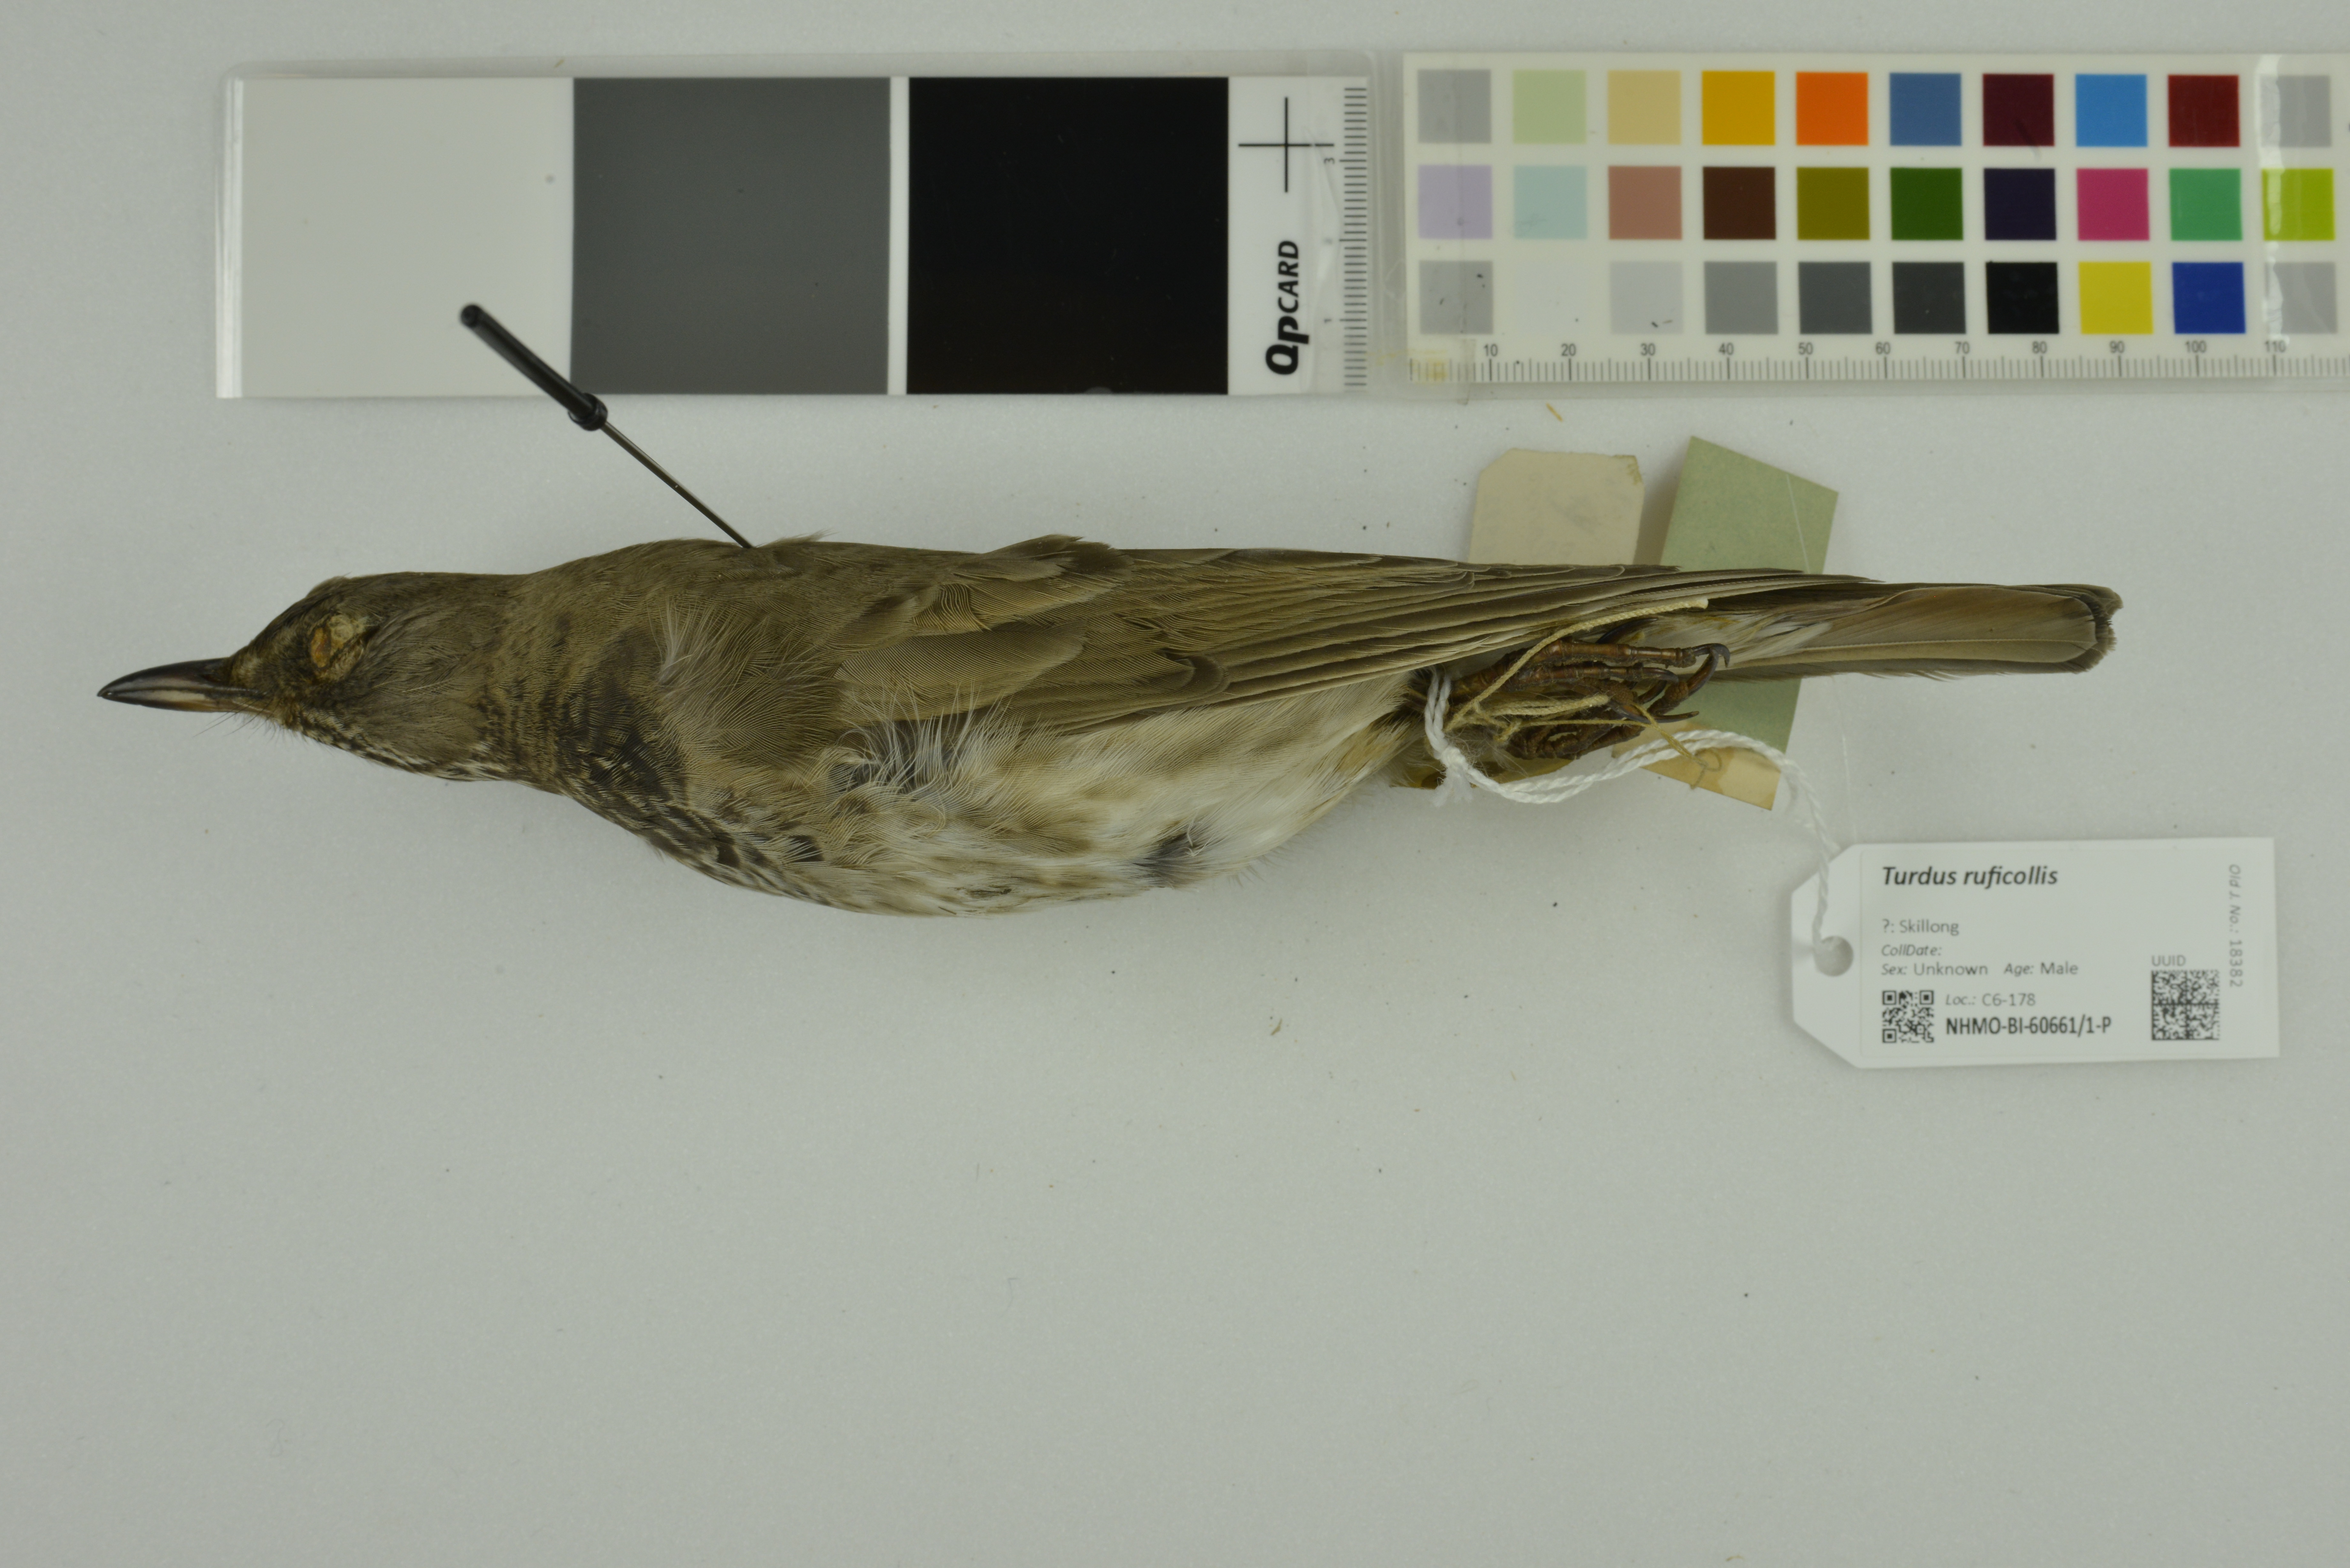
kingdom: Animalia
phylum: Chordata
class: Aves
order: Passeriformes
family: Turdidae
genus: Turdus
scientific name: Turdus ruficollis
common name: Red-throated thrush
